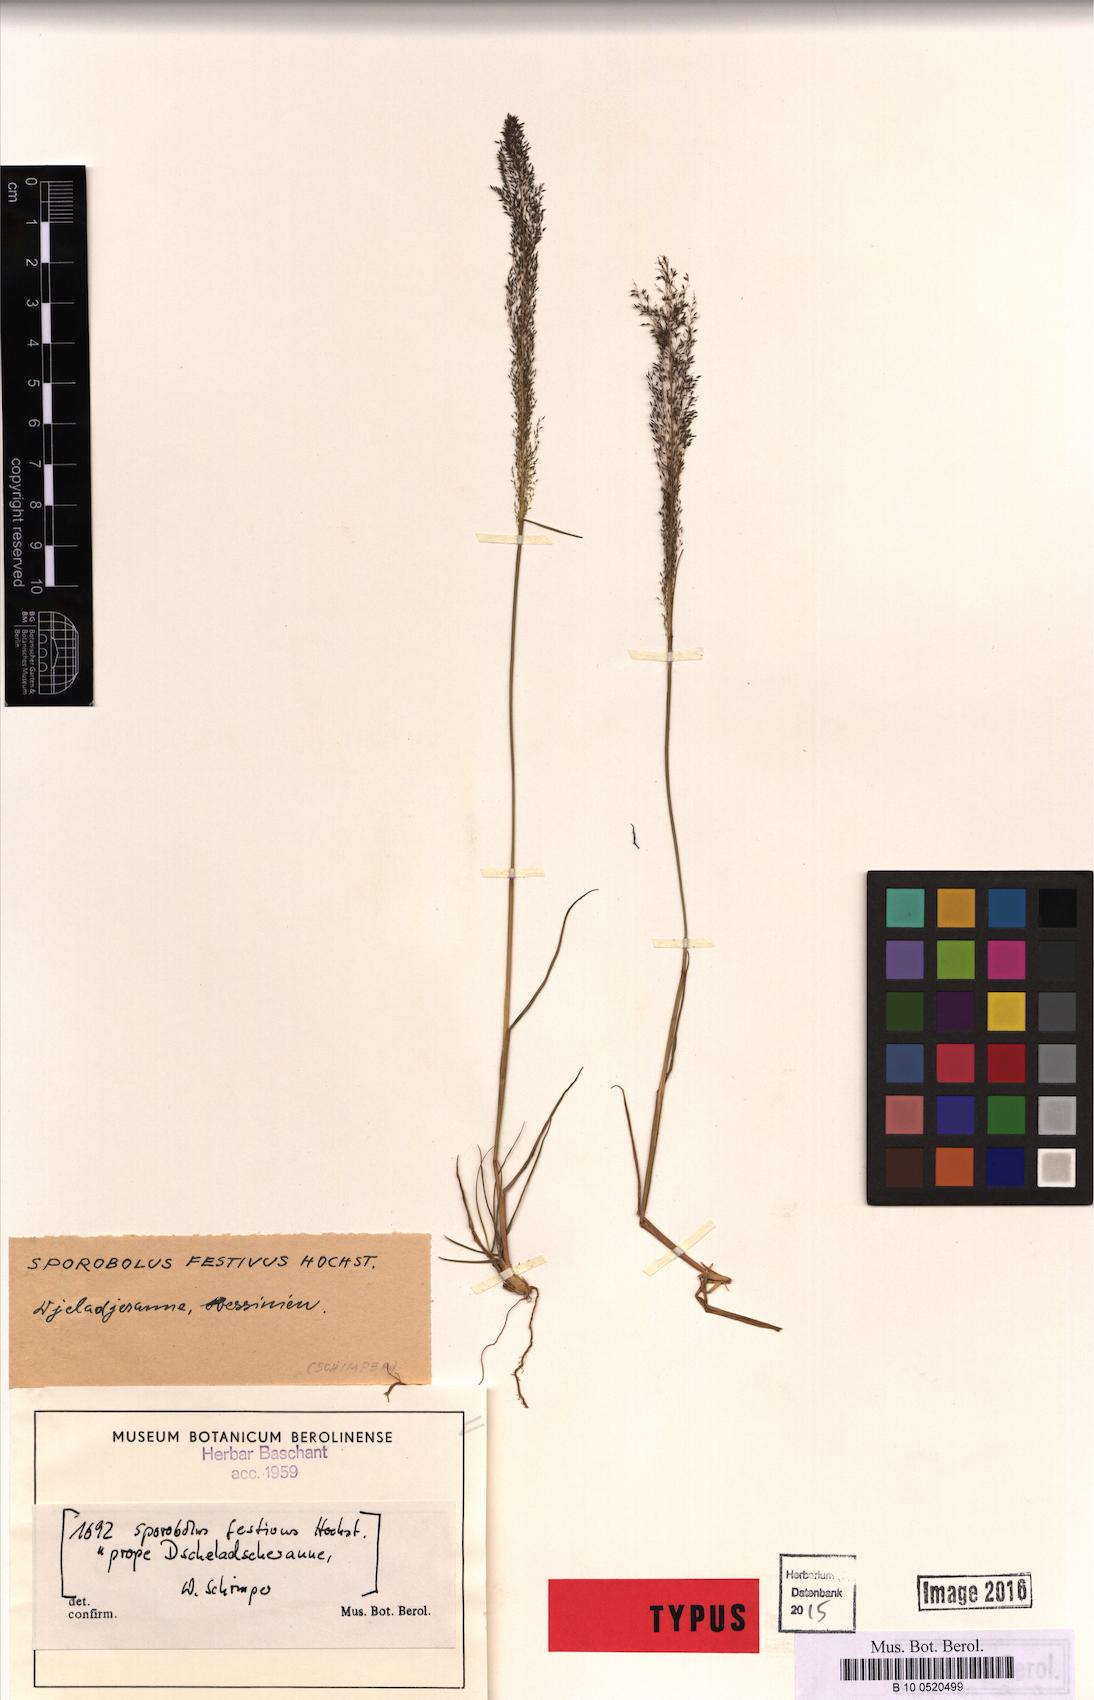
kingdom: Plantae
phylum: Tracheophyta
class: Liliopsida
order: Poales
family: Poaceae
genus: Sporobolus
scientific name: Sporobolus festivus
